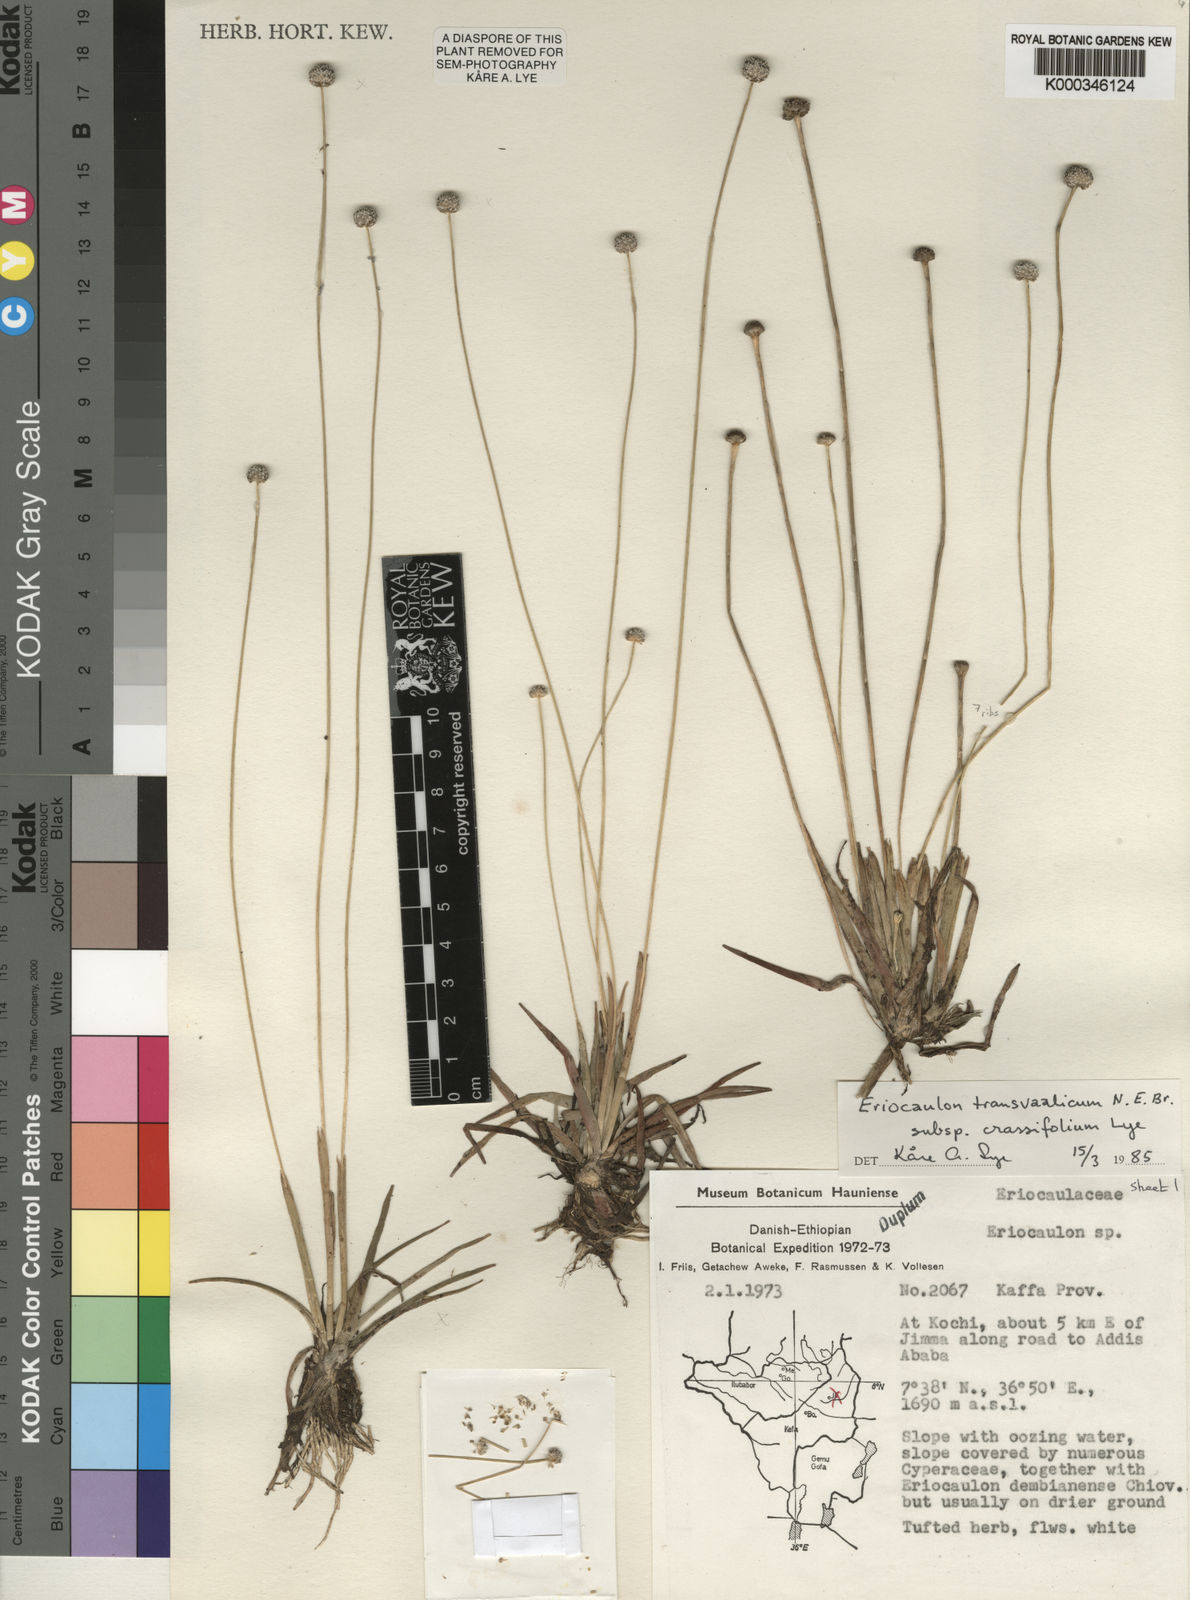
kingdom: Plantae
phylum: Tracheophyta
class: Liliopsida
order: Poales
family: Eriocaulaceae
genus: Eriocaulon
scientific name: Eriocaulon crassiusculum
